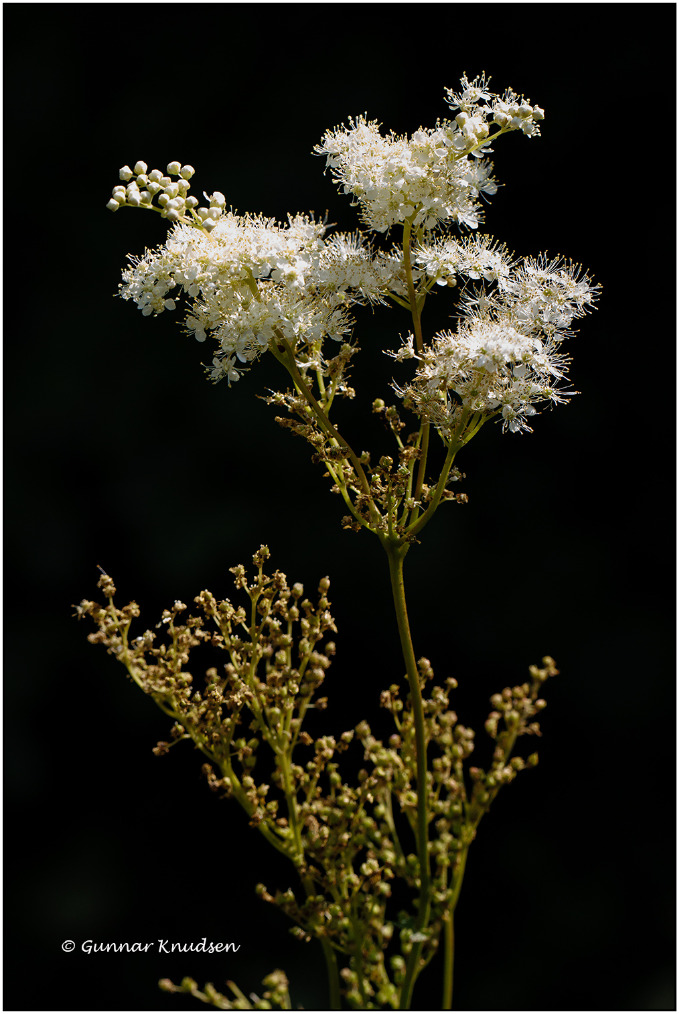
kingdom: Plantae
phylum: Tracheophyta
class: Magnoliopsida
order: Rosales
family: Rosaceae
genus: Filipendula
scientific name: Filipendula ulmaria
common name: Almindelig mjødurt
